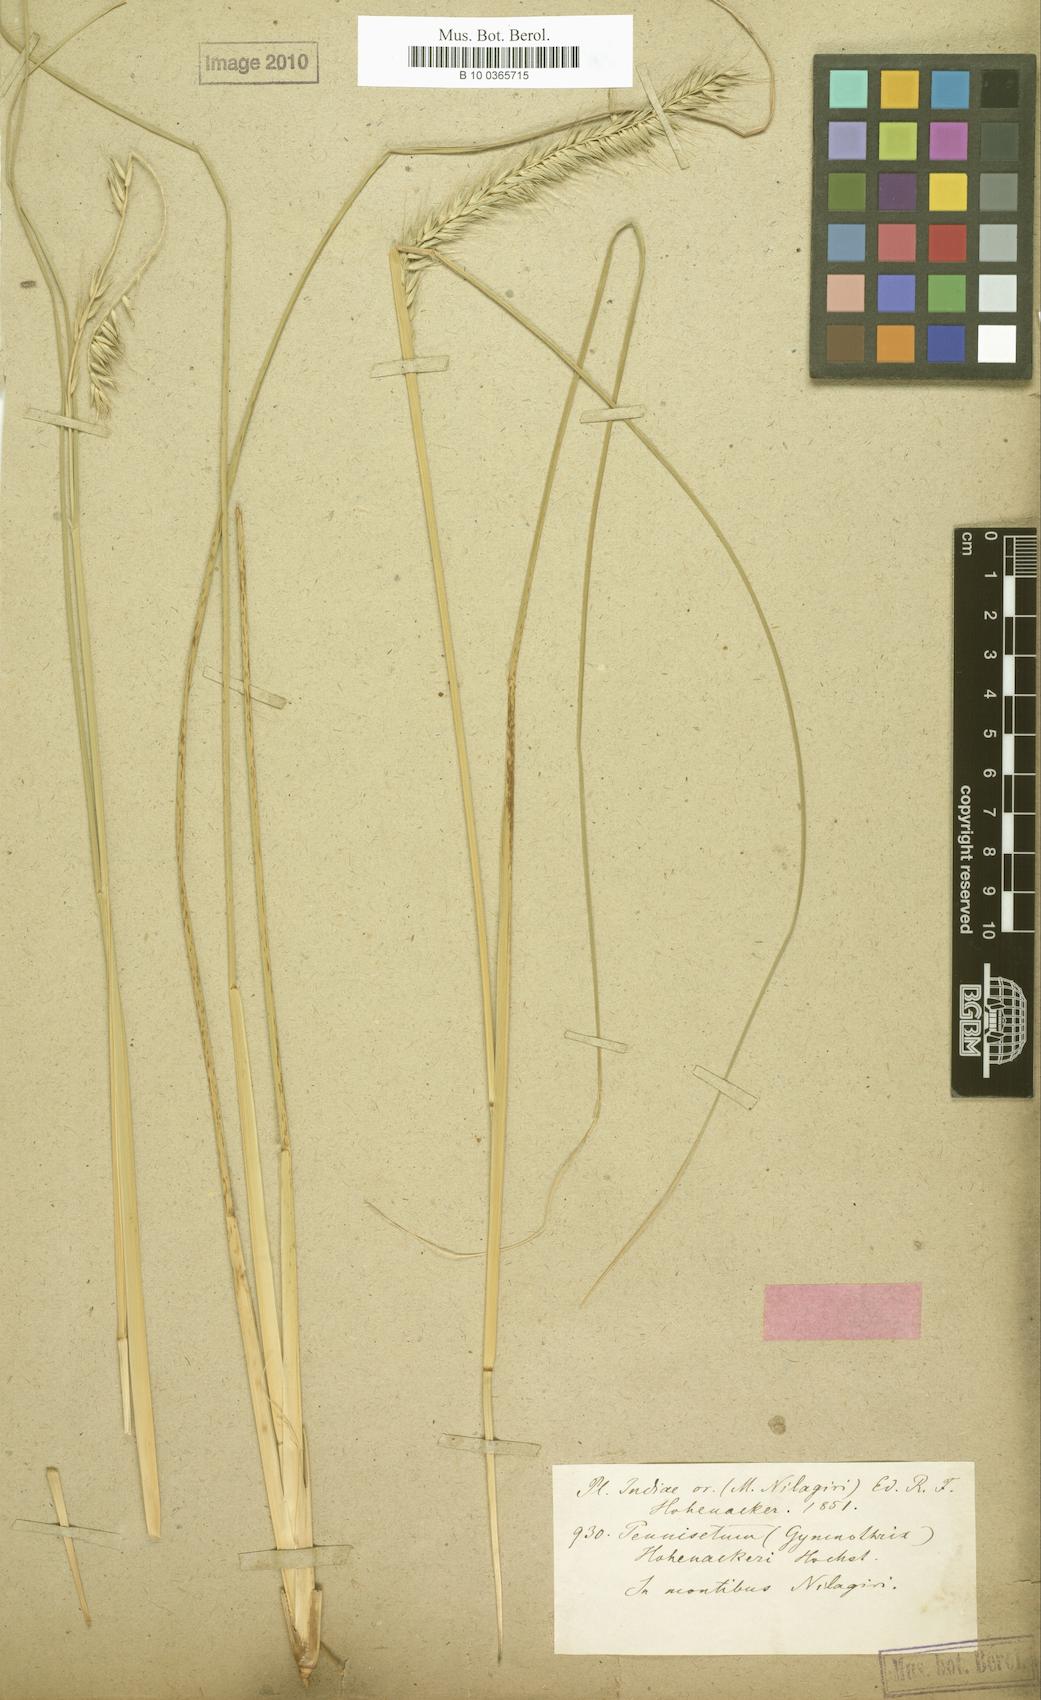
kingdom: Plantae
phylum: Tracheophyta
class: Liliopsida
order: Poales
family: Poaceae
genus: Cenchrus
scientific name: Cenchrus hohenackeri
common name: Moya grass
